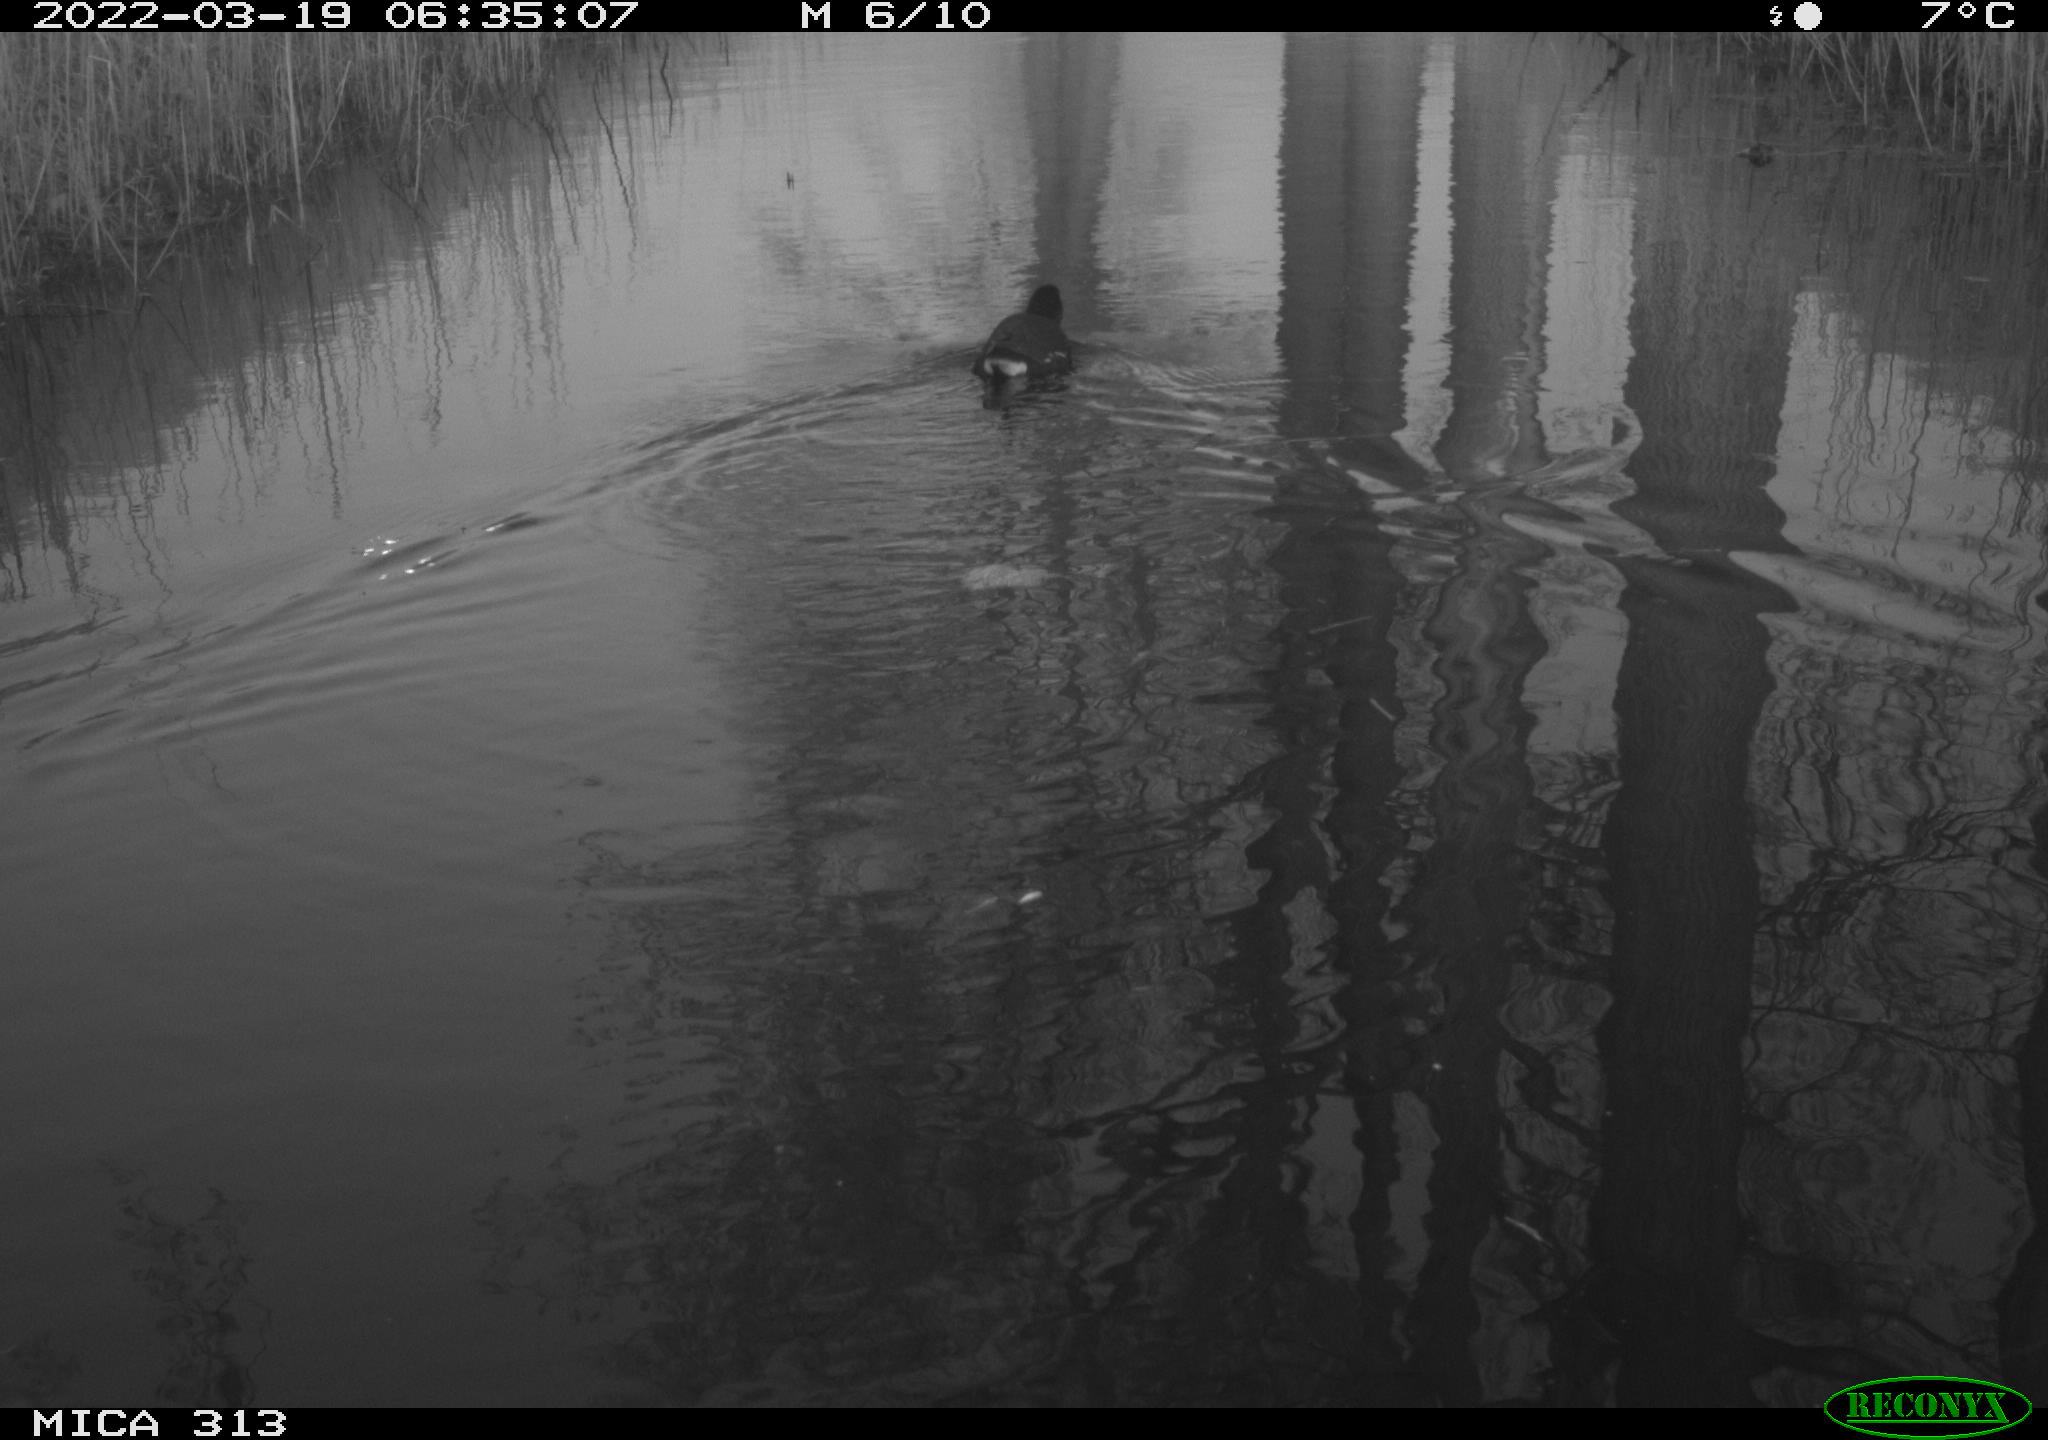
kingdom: Animalia
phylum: Chordata
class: Aves
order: Gruiformes
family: Rallidae
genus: Gallinula
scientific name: Gallinula chloropus
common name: Common moorhen
